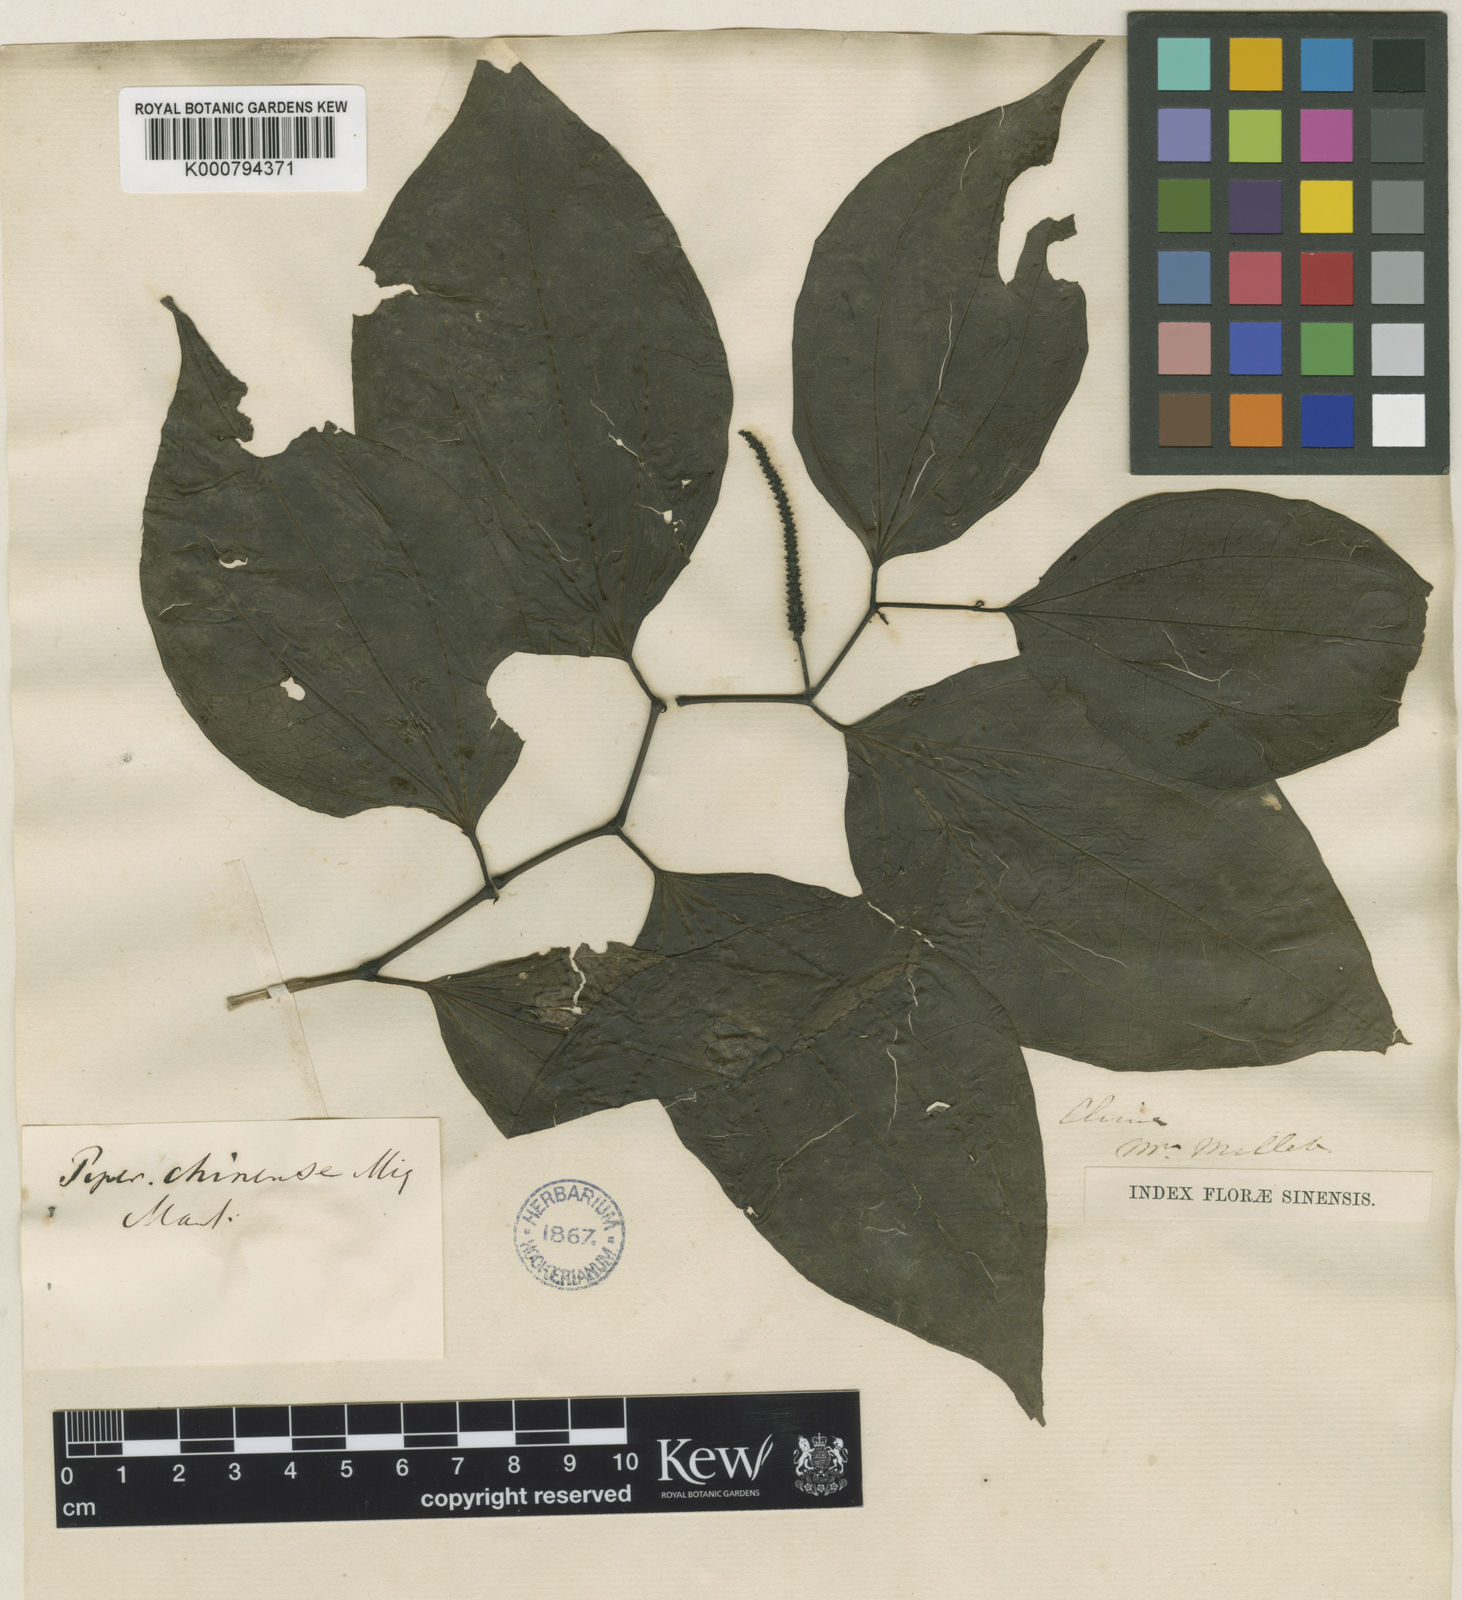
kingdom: Plantae
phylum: Tracheophyta
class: Magnoliopsida
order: Piperales
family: Piperaceae
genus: Piper
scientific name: Piper chinense
